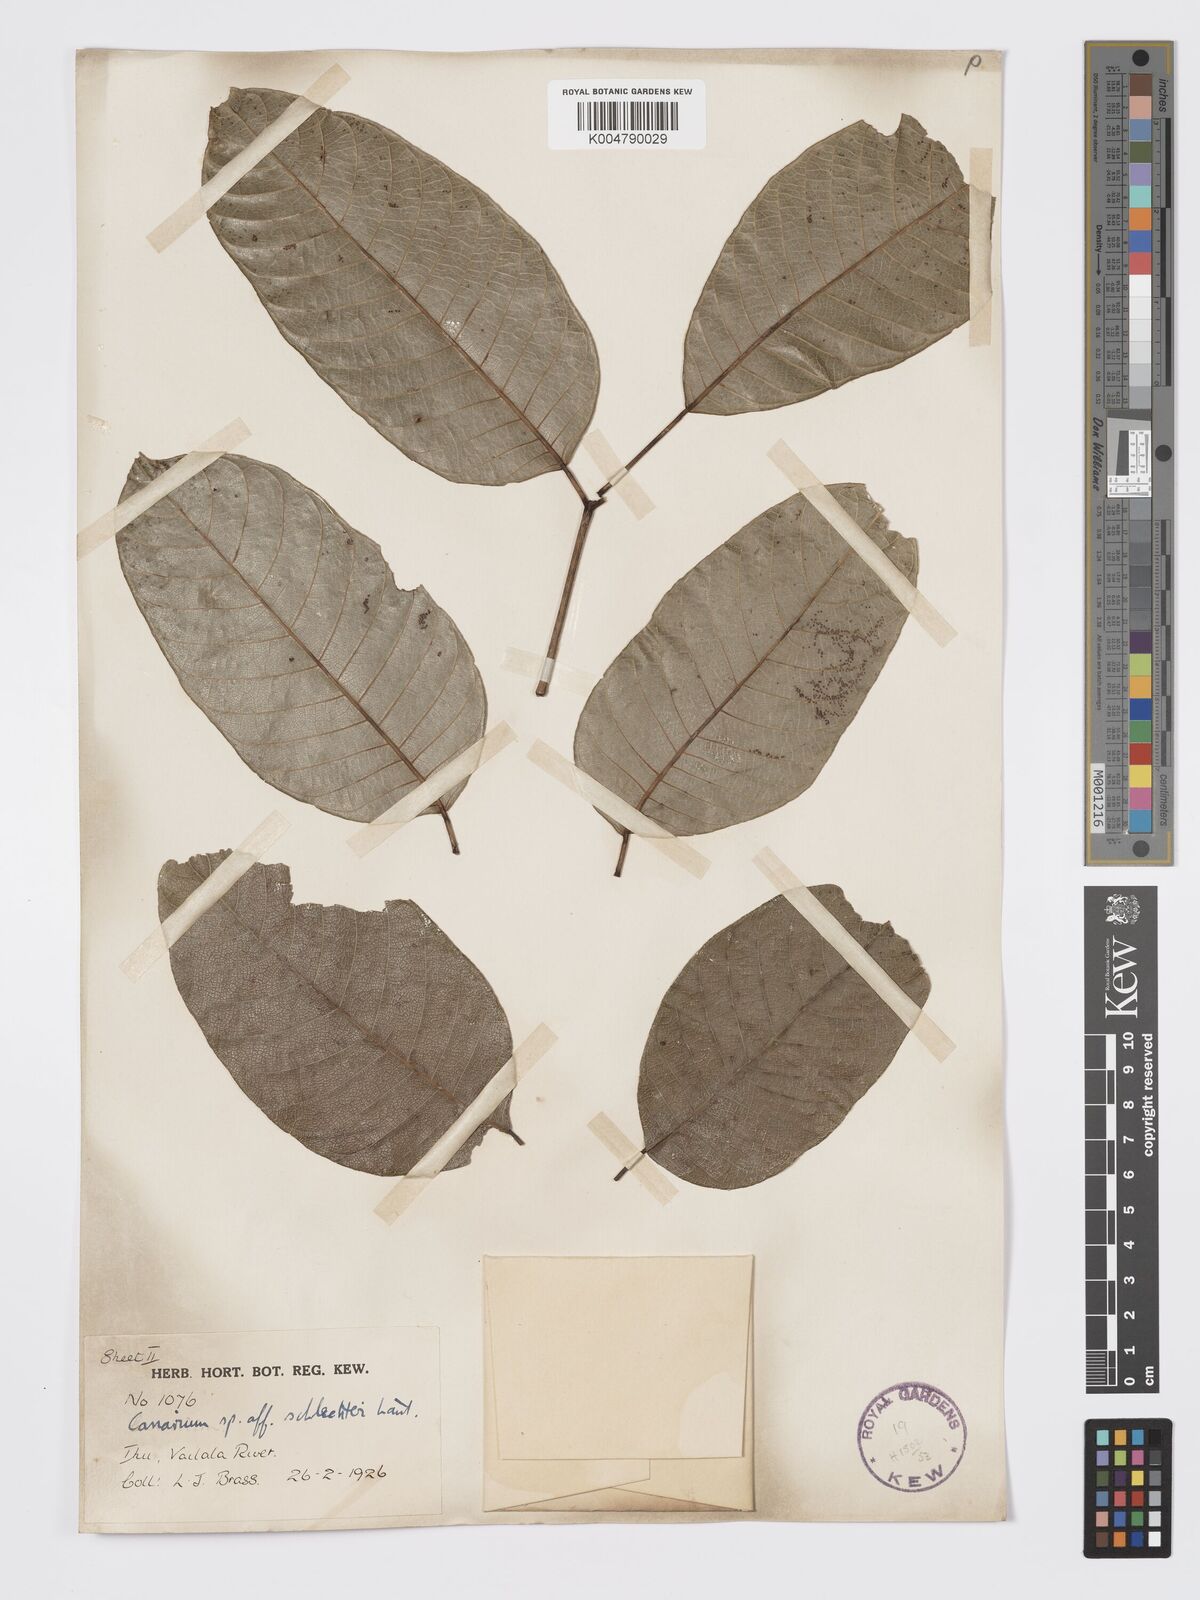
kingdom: Plantae
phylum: Tracheophyta
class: Magnoliopsida
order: Sapindales
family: Burseraceae
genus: Canarium
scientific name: Canarium schlechteri
